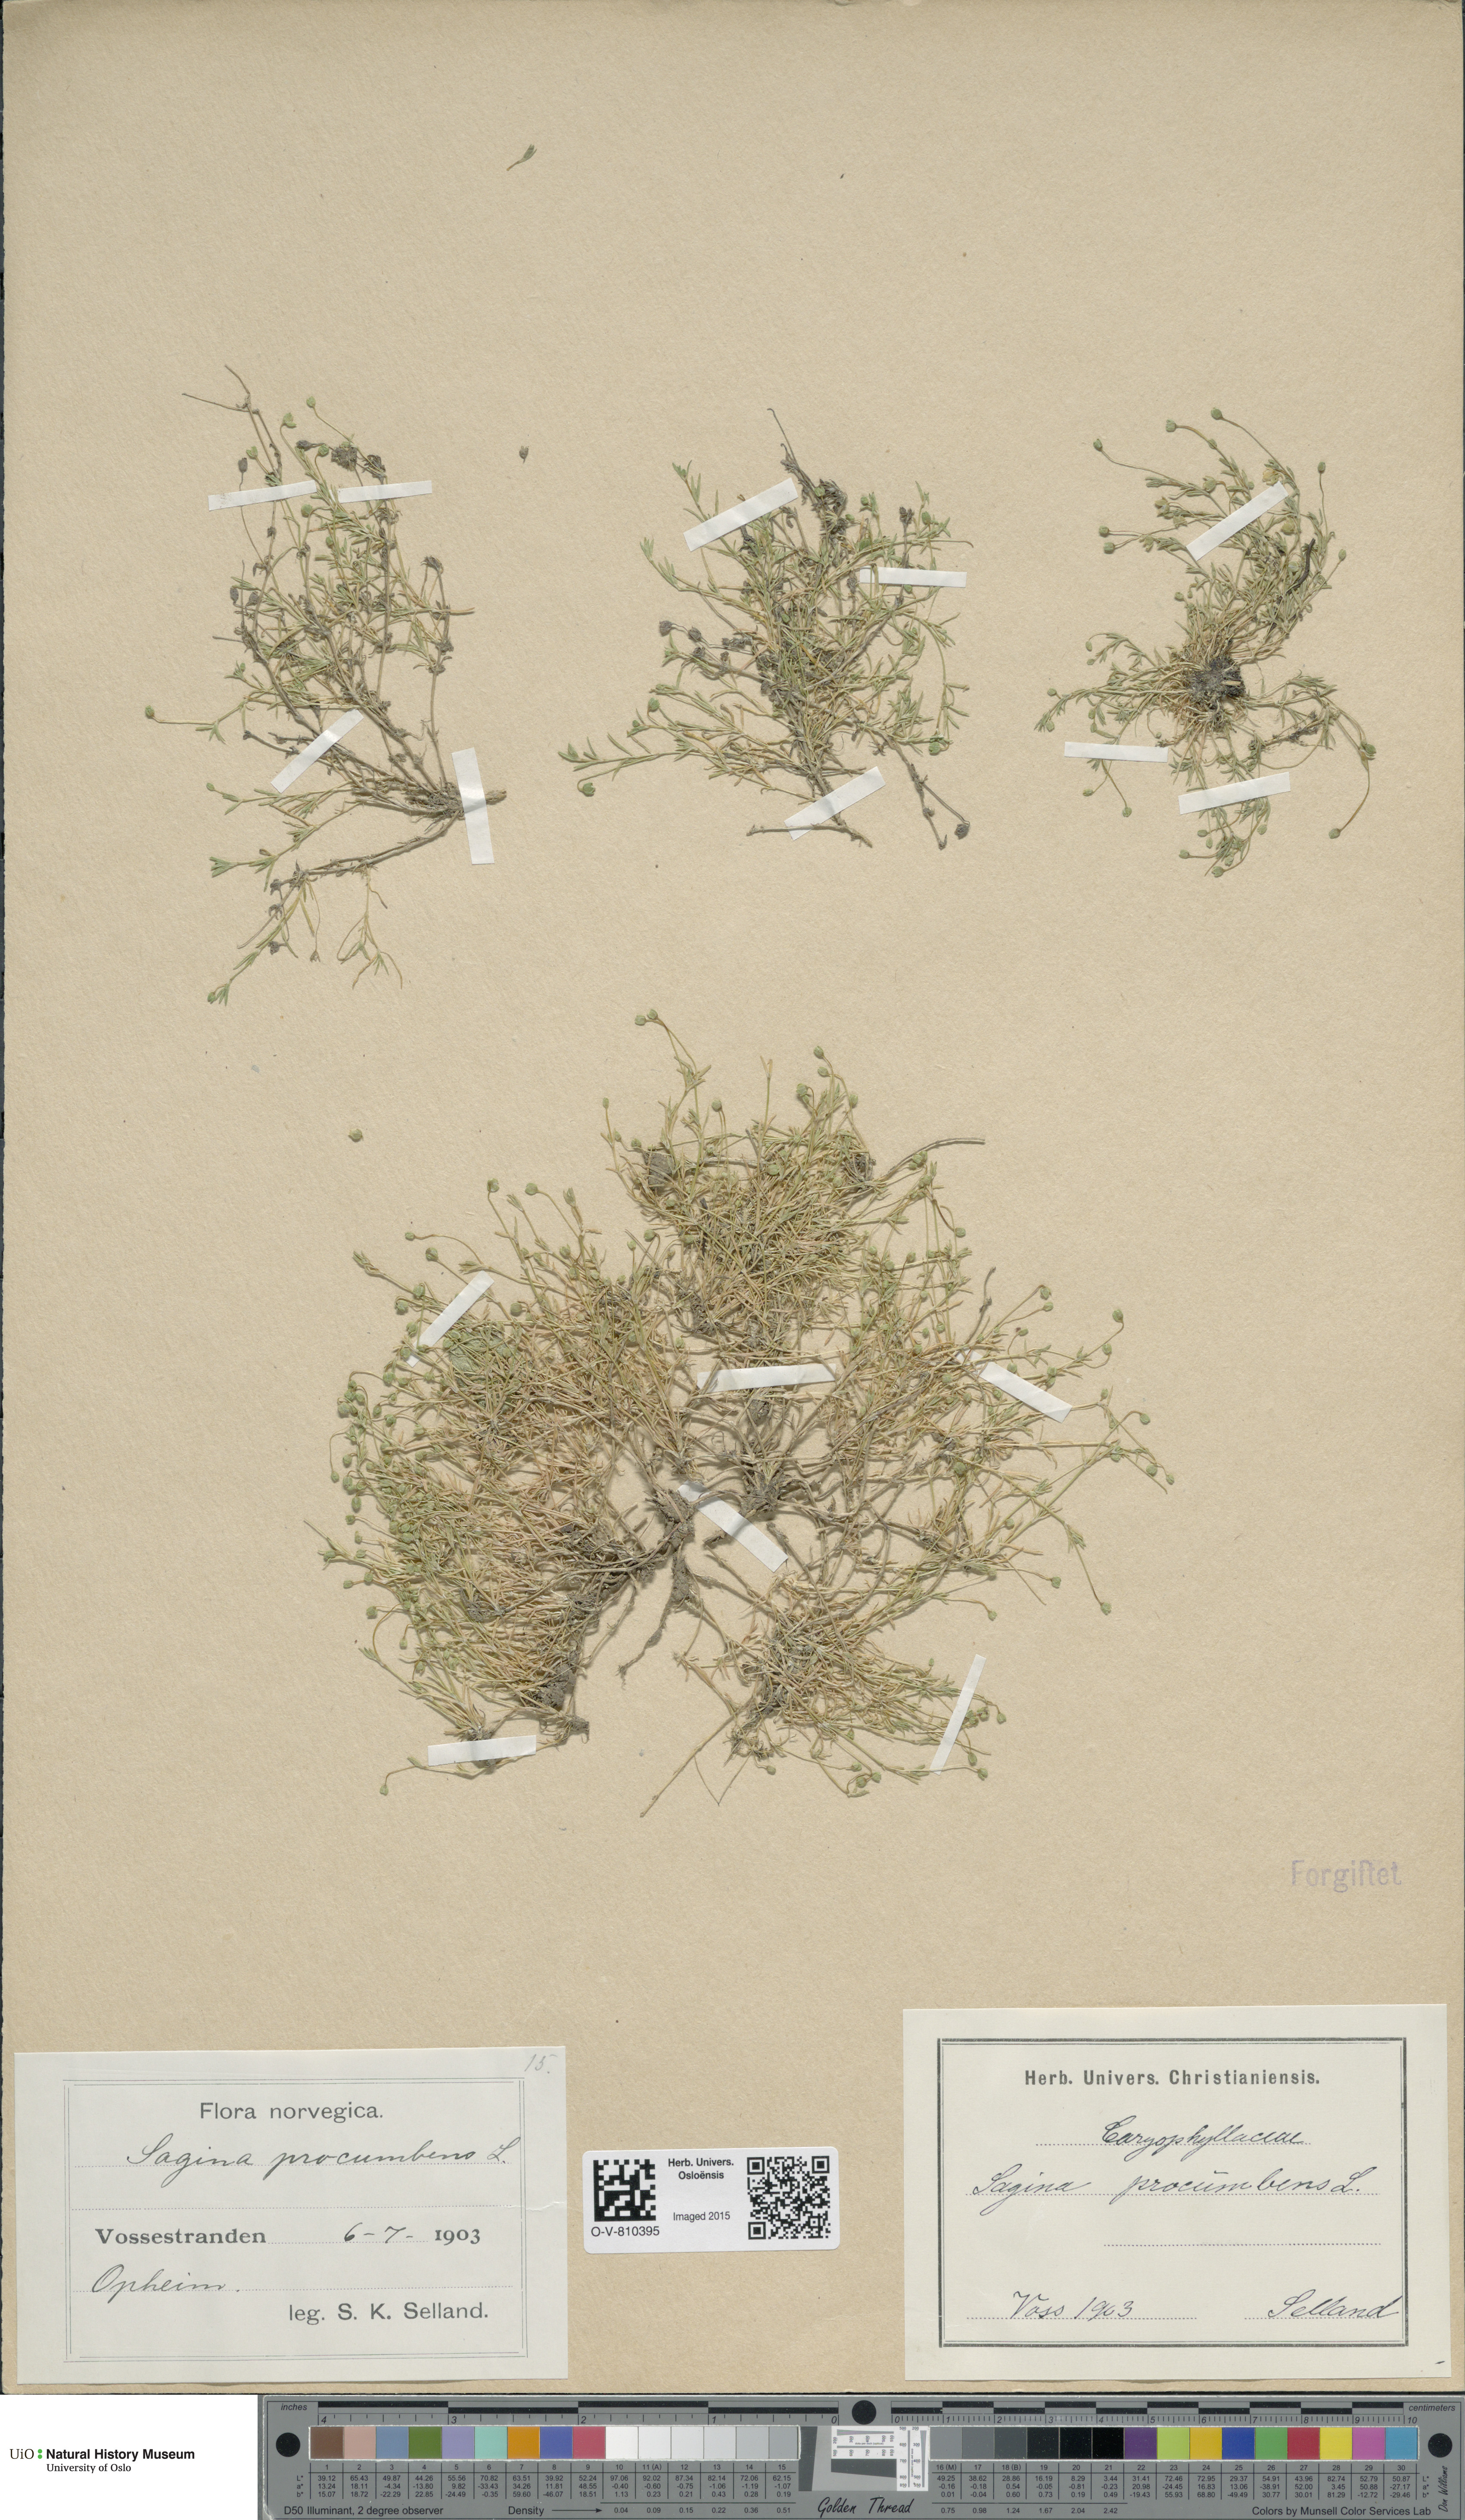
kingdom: Plantae
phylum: Tracheophyta
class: Magnoliopsida
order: Caryophyllales
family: Caryophyllaceae
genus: Sagina
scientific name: Sagina procumbens
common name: Procumbent pearlwort
